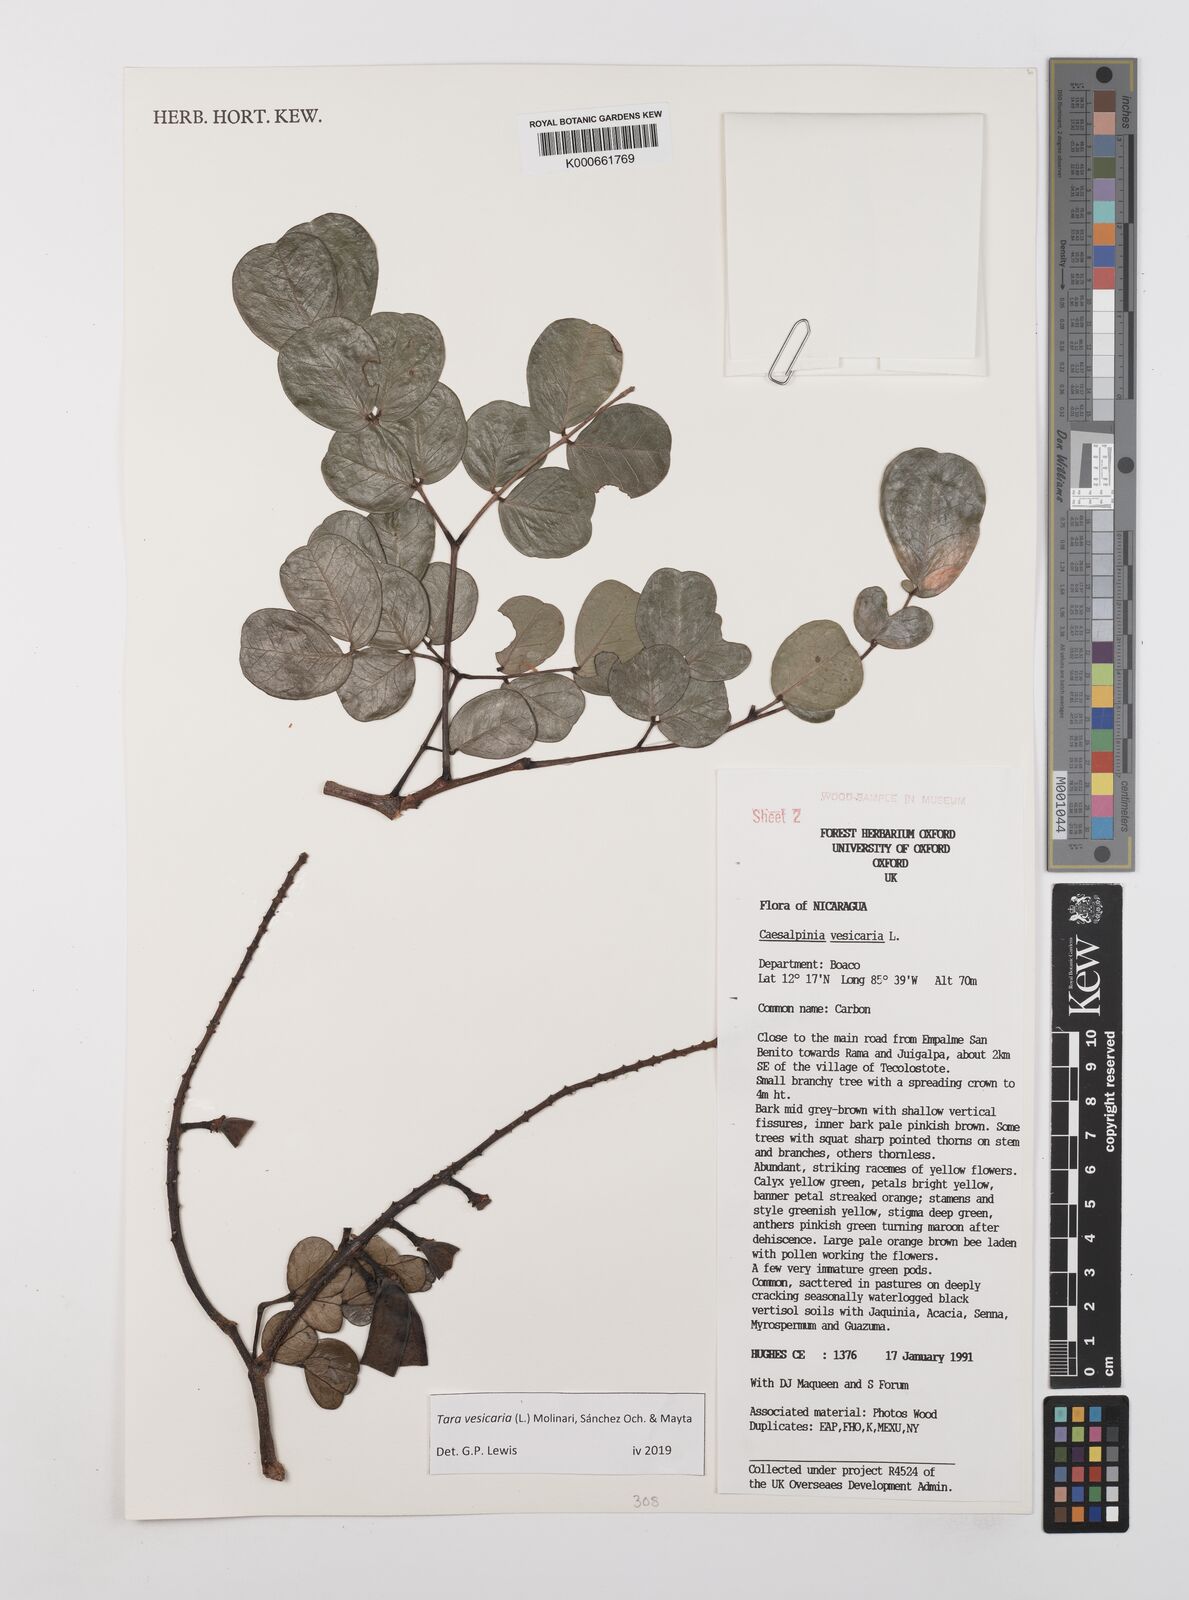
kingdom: Plantae
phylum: Tracheophyta
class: Magnoliopsida
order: Fabales
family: Fabaceae
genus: Tara
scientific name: Tara vesicaria
